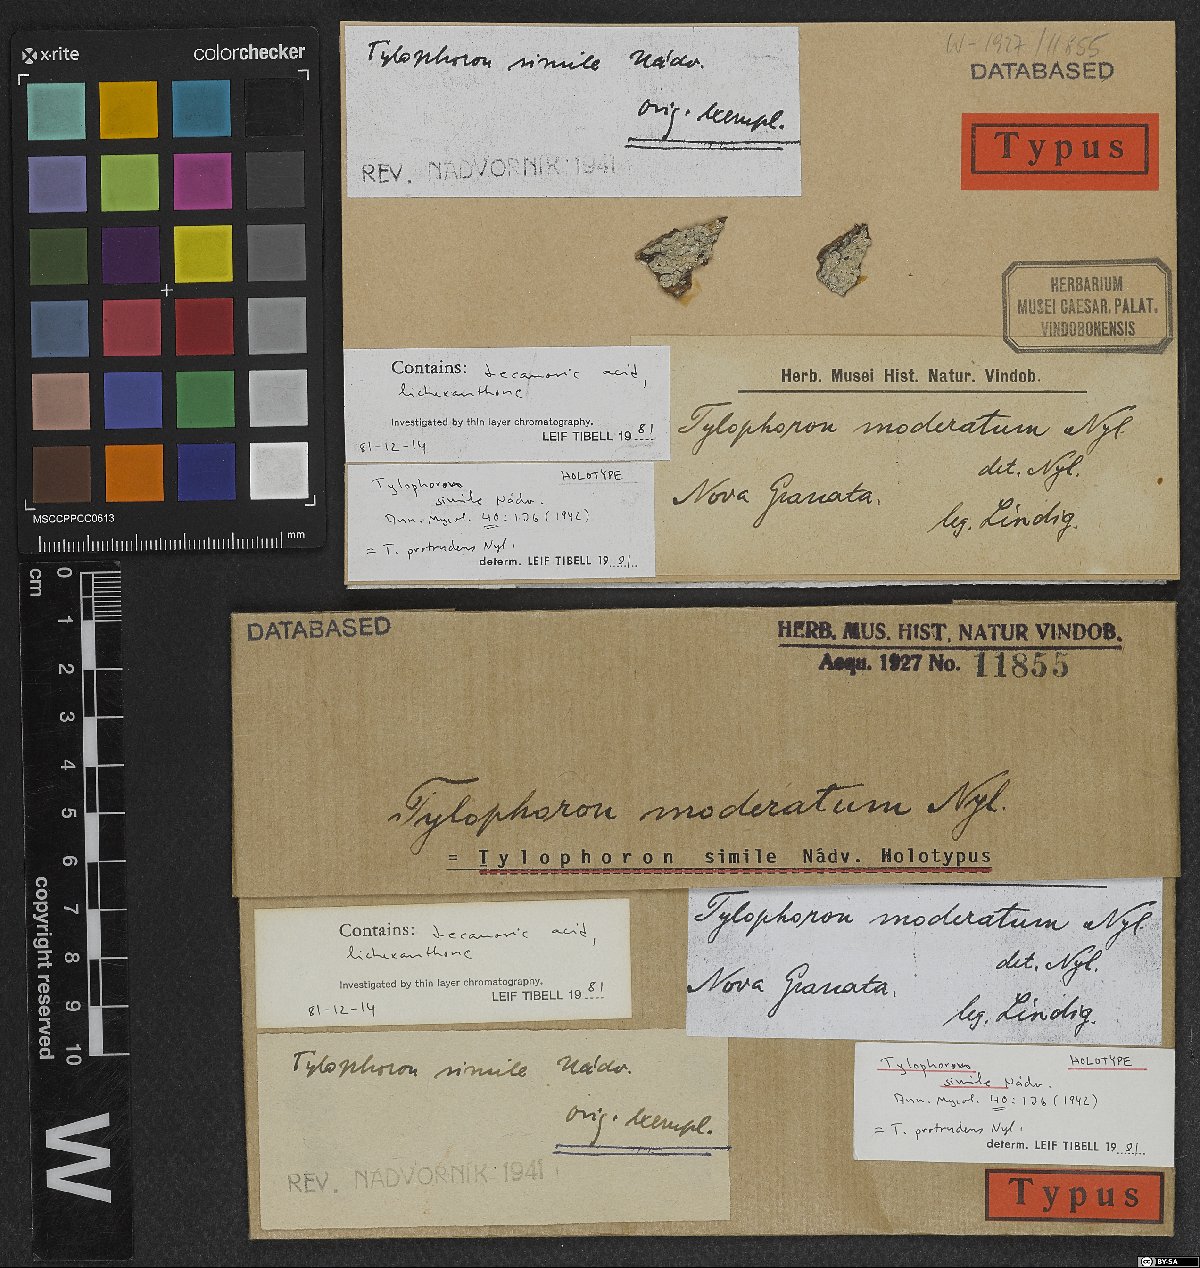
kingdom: Fungi
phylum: Ascomycota
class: Arthoniomycetes
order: Arthoniales
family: Arthoniaceae
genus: Tylophoron
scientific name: Tylophoron protrudens
